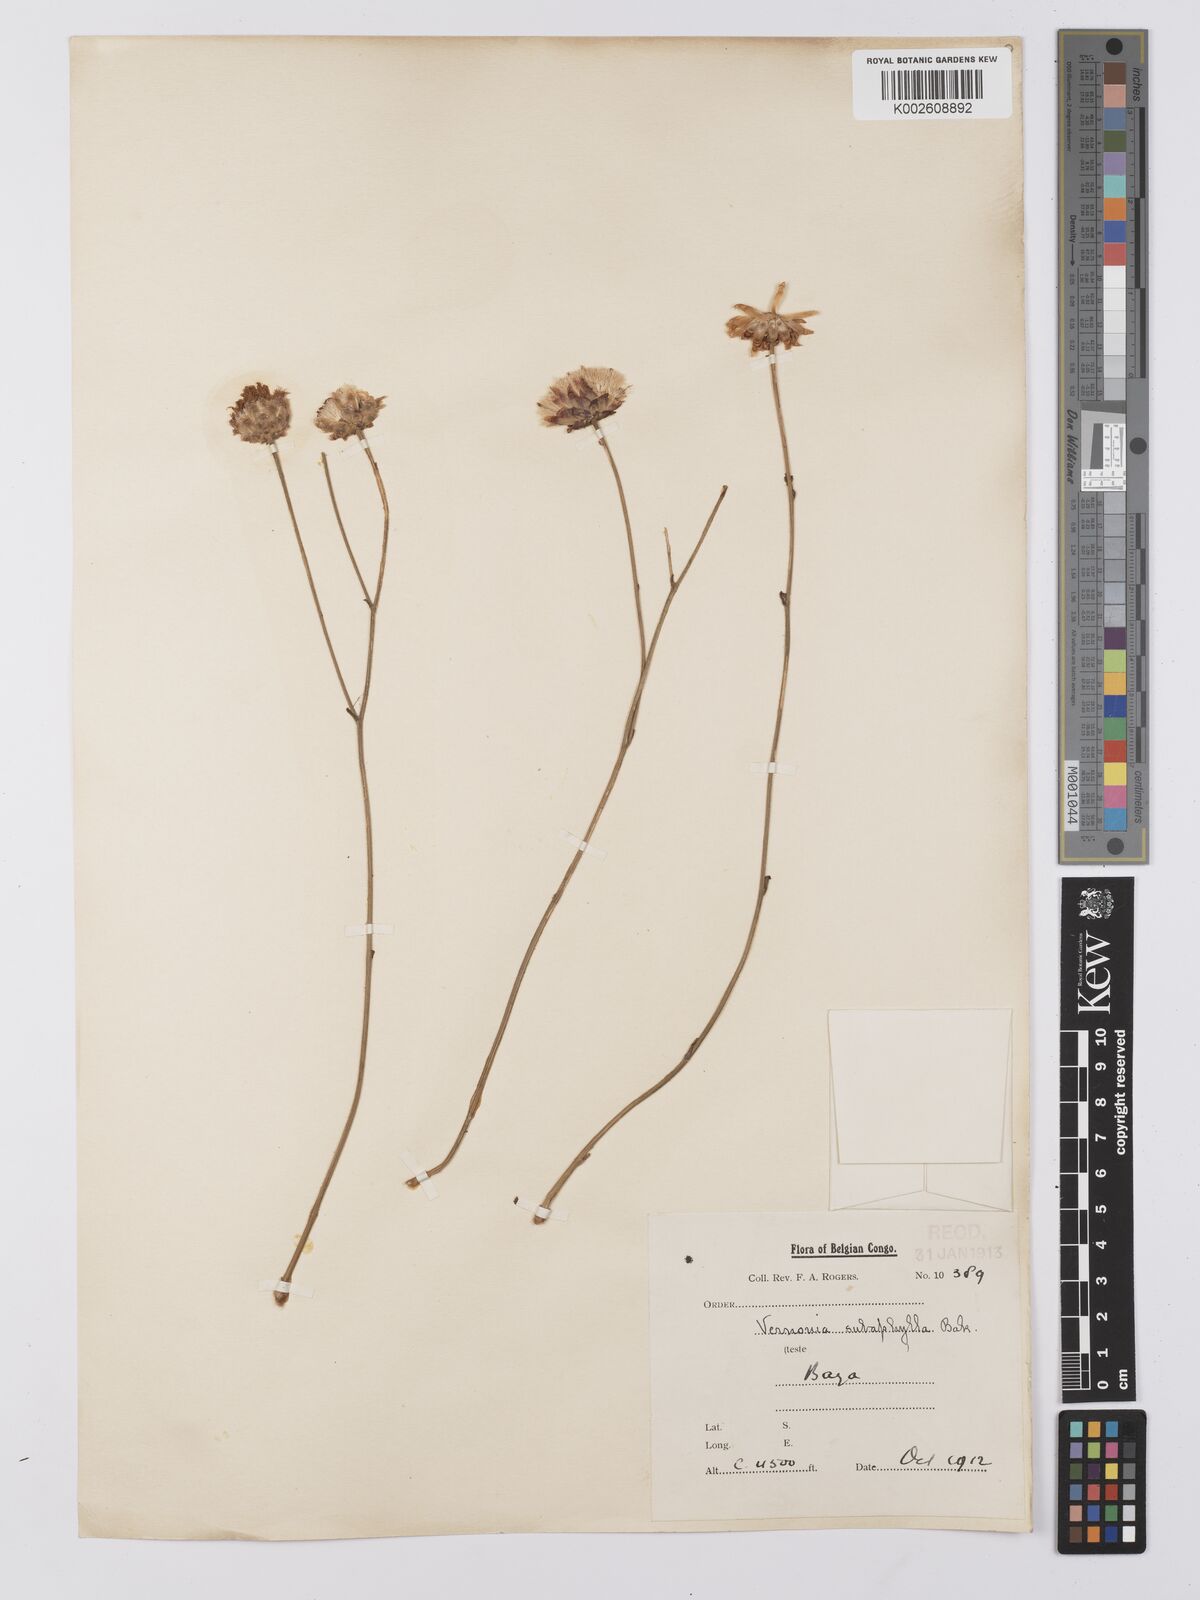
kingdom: Plantae
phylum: Tracheophyta
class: Magnoliopsida
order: Asterales
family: Asteraceae
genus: Vernonella
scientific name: Vernonella subaphylla
